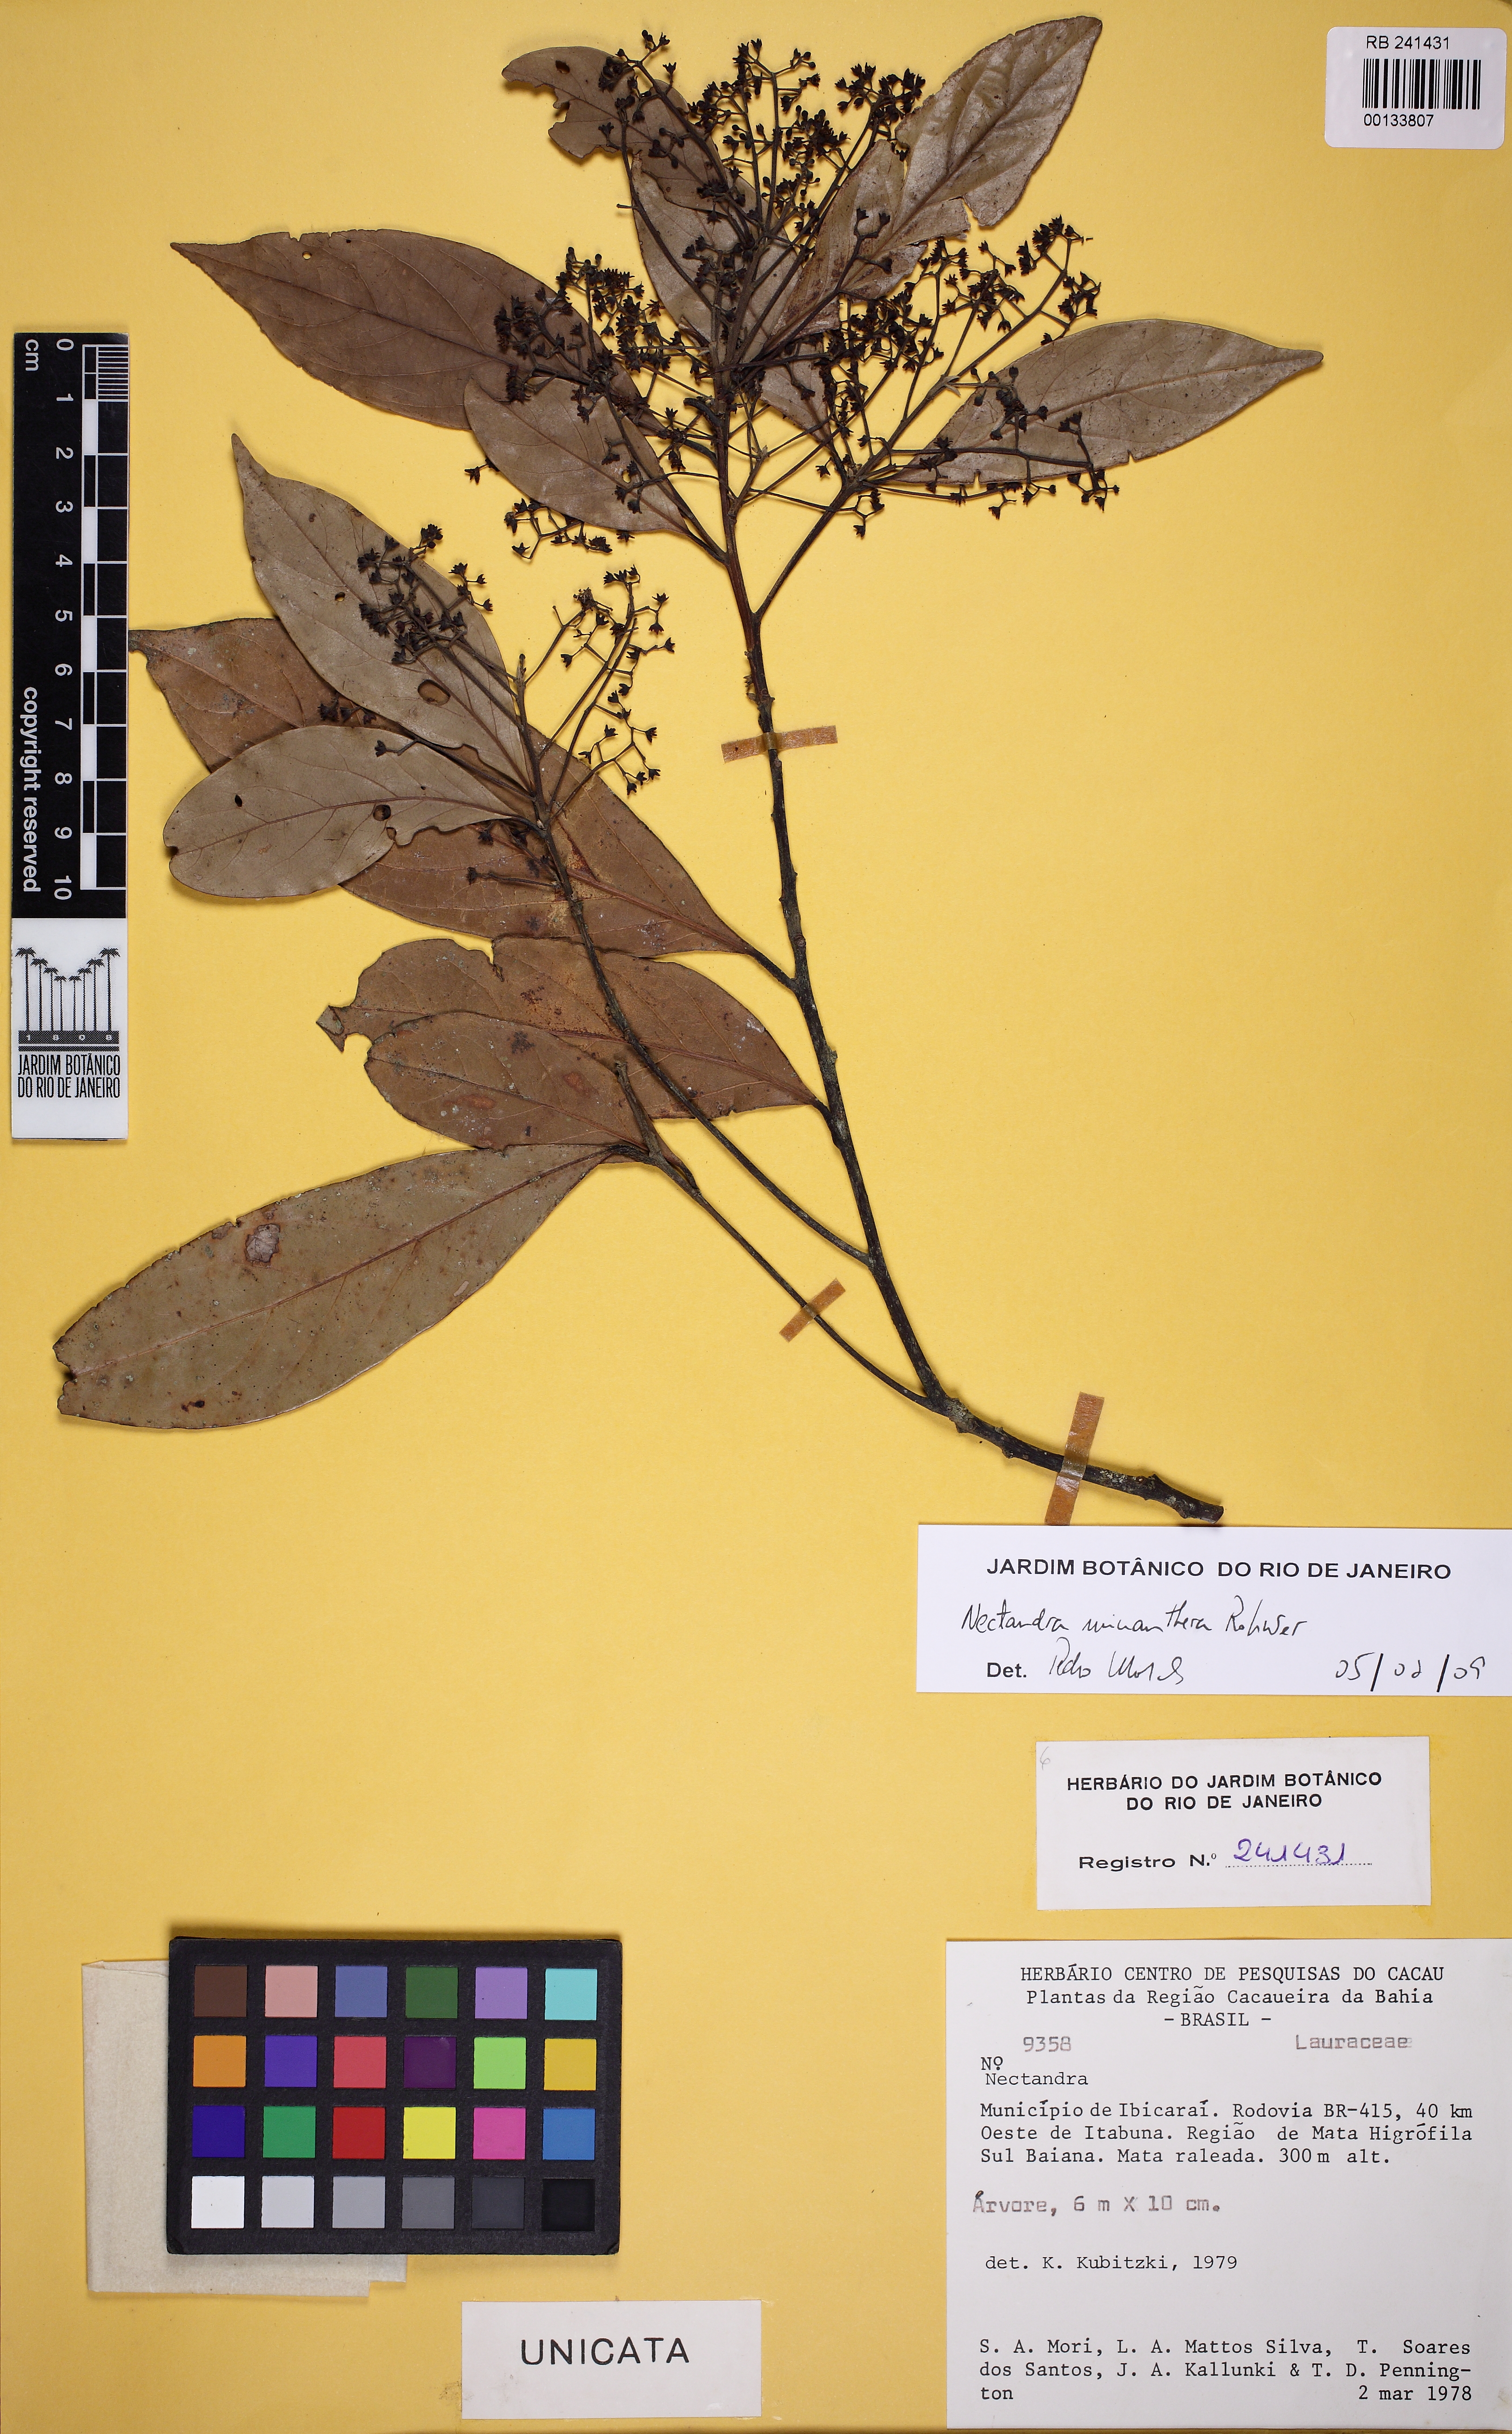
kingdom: Plantae
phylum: Tracheophyta
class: Magnoliopsida
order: Laurales
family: Lauraceae
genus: Nectandra
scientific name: Nectandra micranthera
